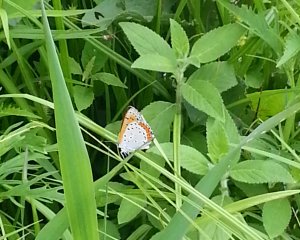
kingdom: Animalia
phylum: Arthropoda
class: Insecta
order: Lepidoptera
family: Sesiidae
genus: Sesia
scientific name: Sesia Lycaena hyllus
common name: Bronze Copper
